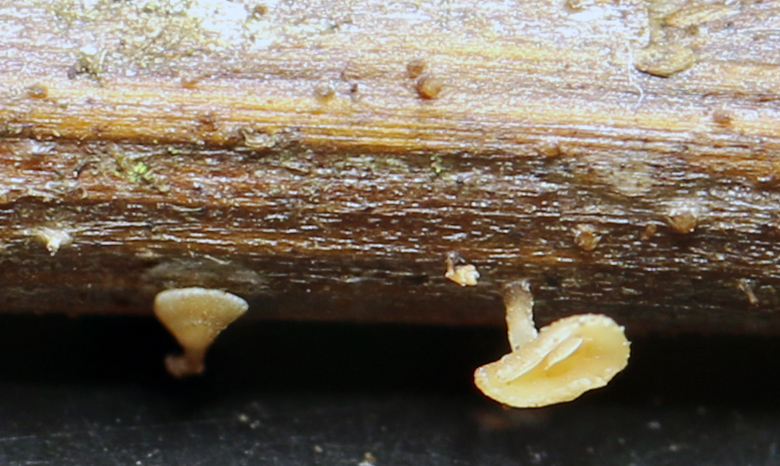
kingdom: Fungi
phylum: Ascomycota
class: Leotiomycetes
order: Helotiales
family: Helotiaceae
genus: Hymenoscyphus
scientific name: Hymenoscyphus scutula
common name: almindelig stilkskive
